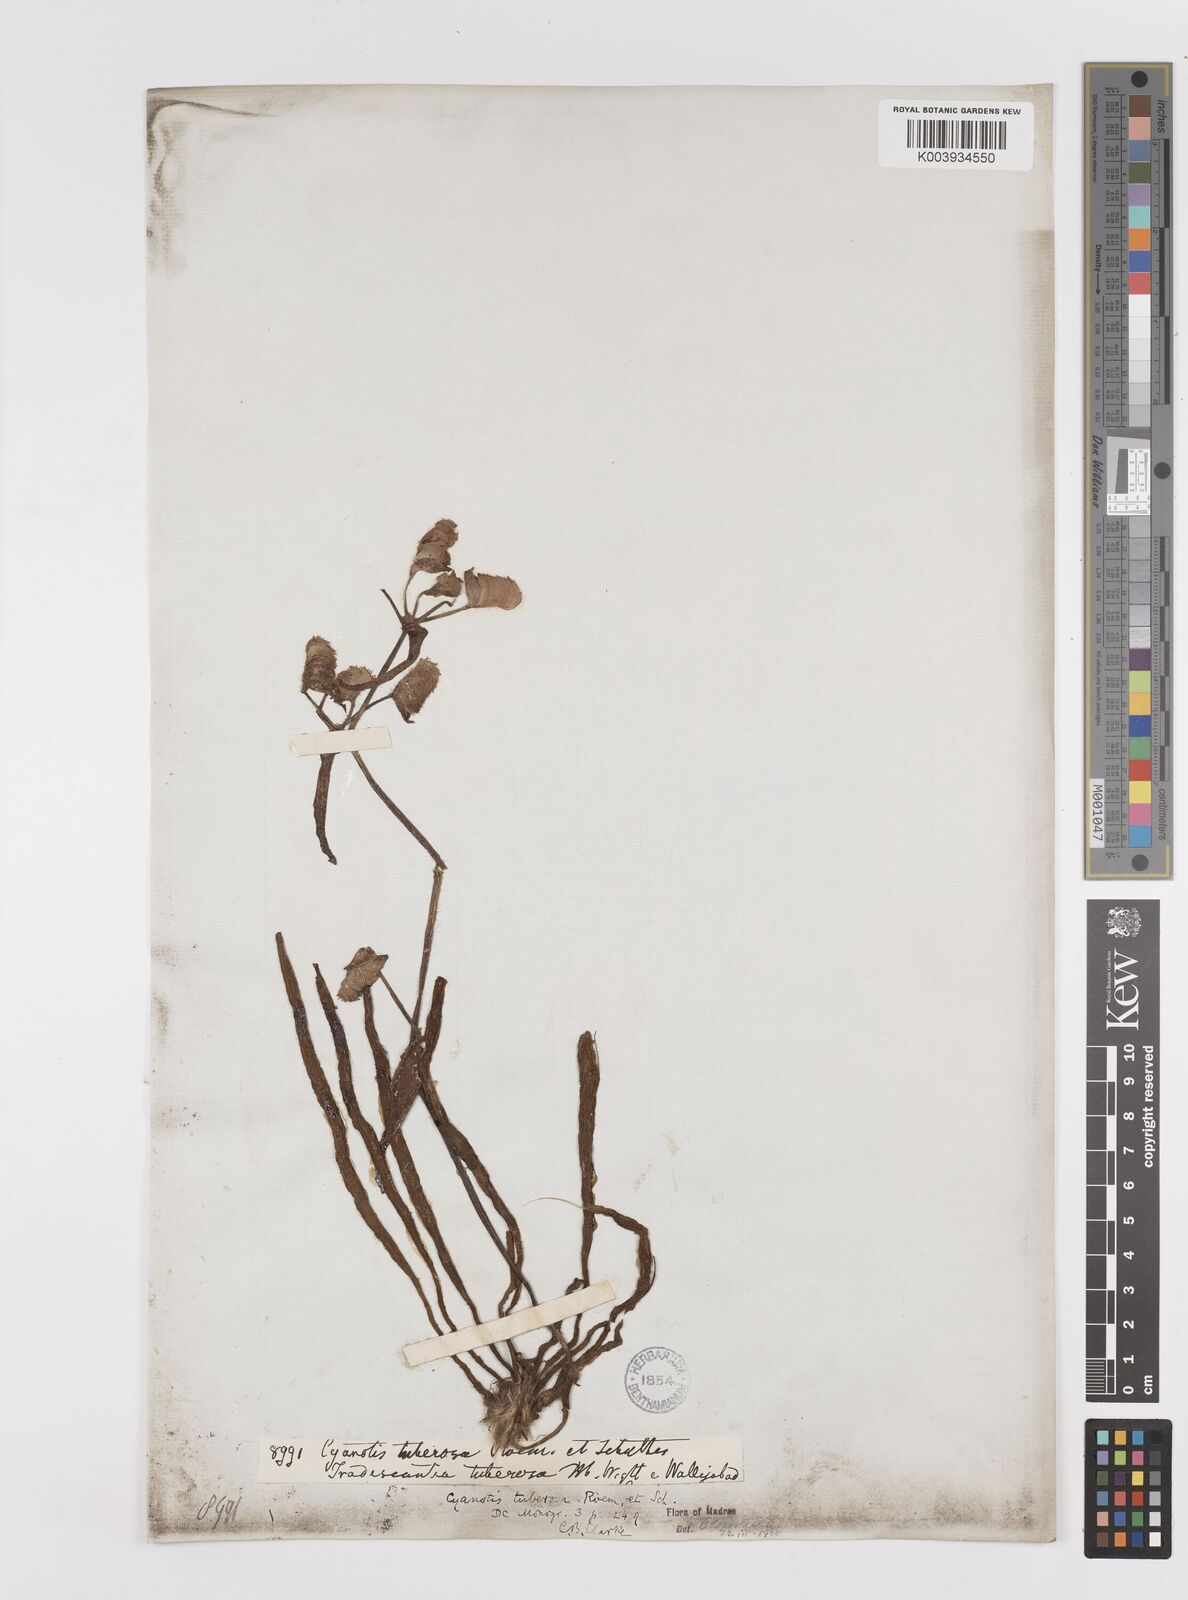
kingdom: Plantae
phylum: Tracheophyta
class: Liliopsida
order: Commelinales
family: Commelinaceae
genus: Cyanotis
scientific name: Cyanotis tuberosa
